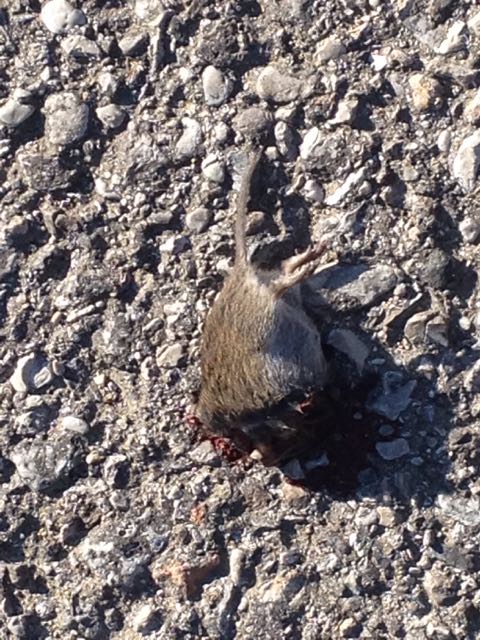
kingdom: Animalia
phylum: Chordata
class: Mammalia
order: Rodentia
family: Cricetidae
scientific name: Cricetidae
